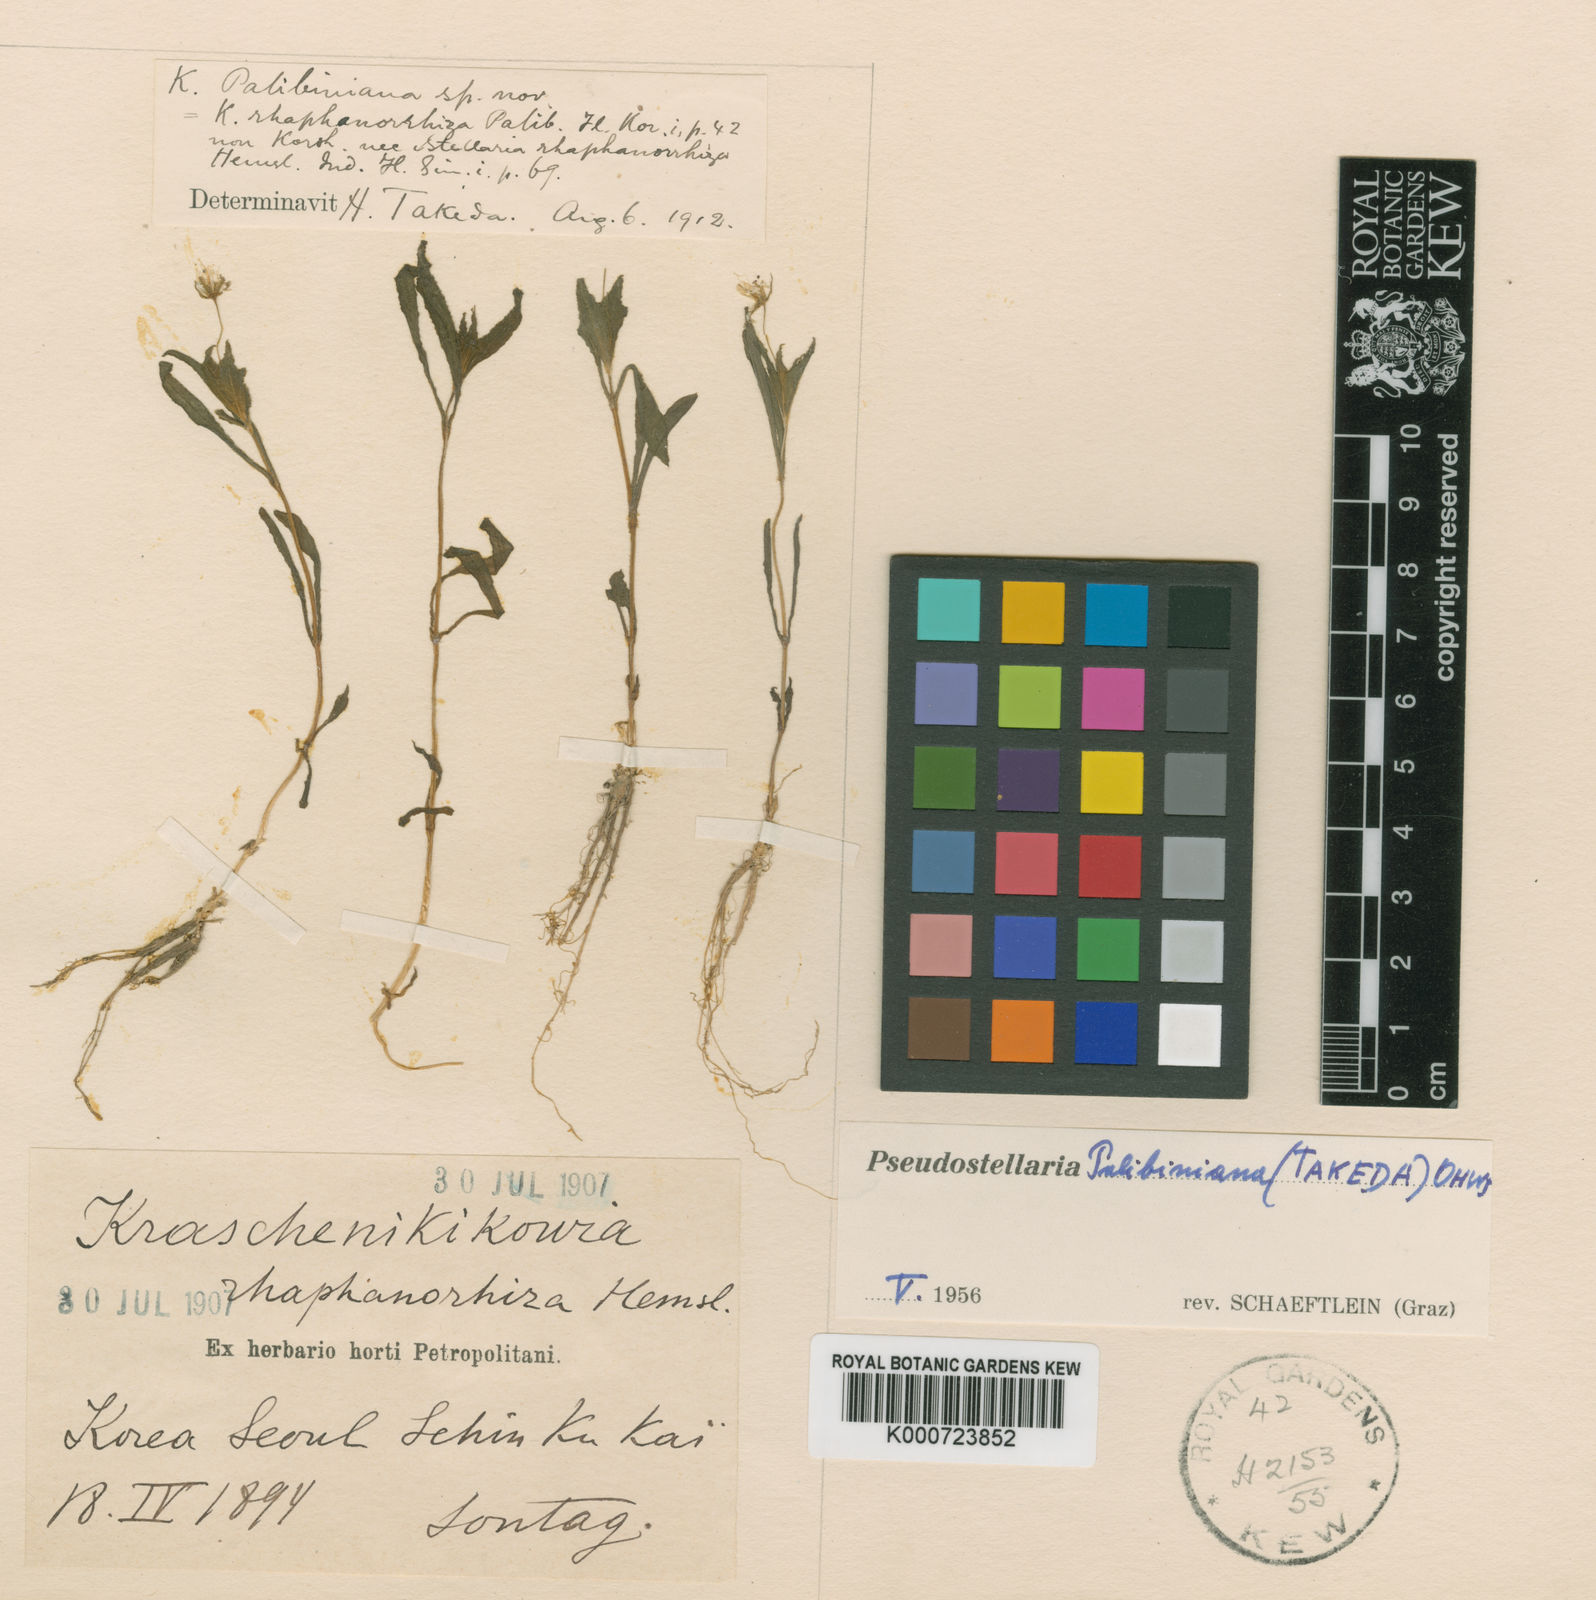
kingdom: Plantae
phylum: Tracheophyta
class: Magnoliopsida
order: Caryophyllales
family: Caryophyllaceae
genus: Pseudostellaria
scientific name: Pseudostellaria palibiniana
